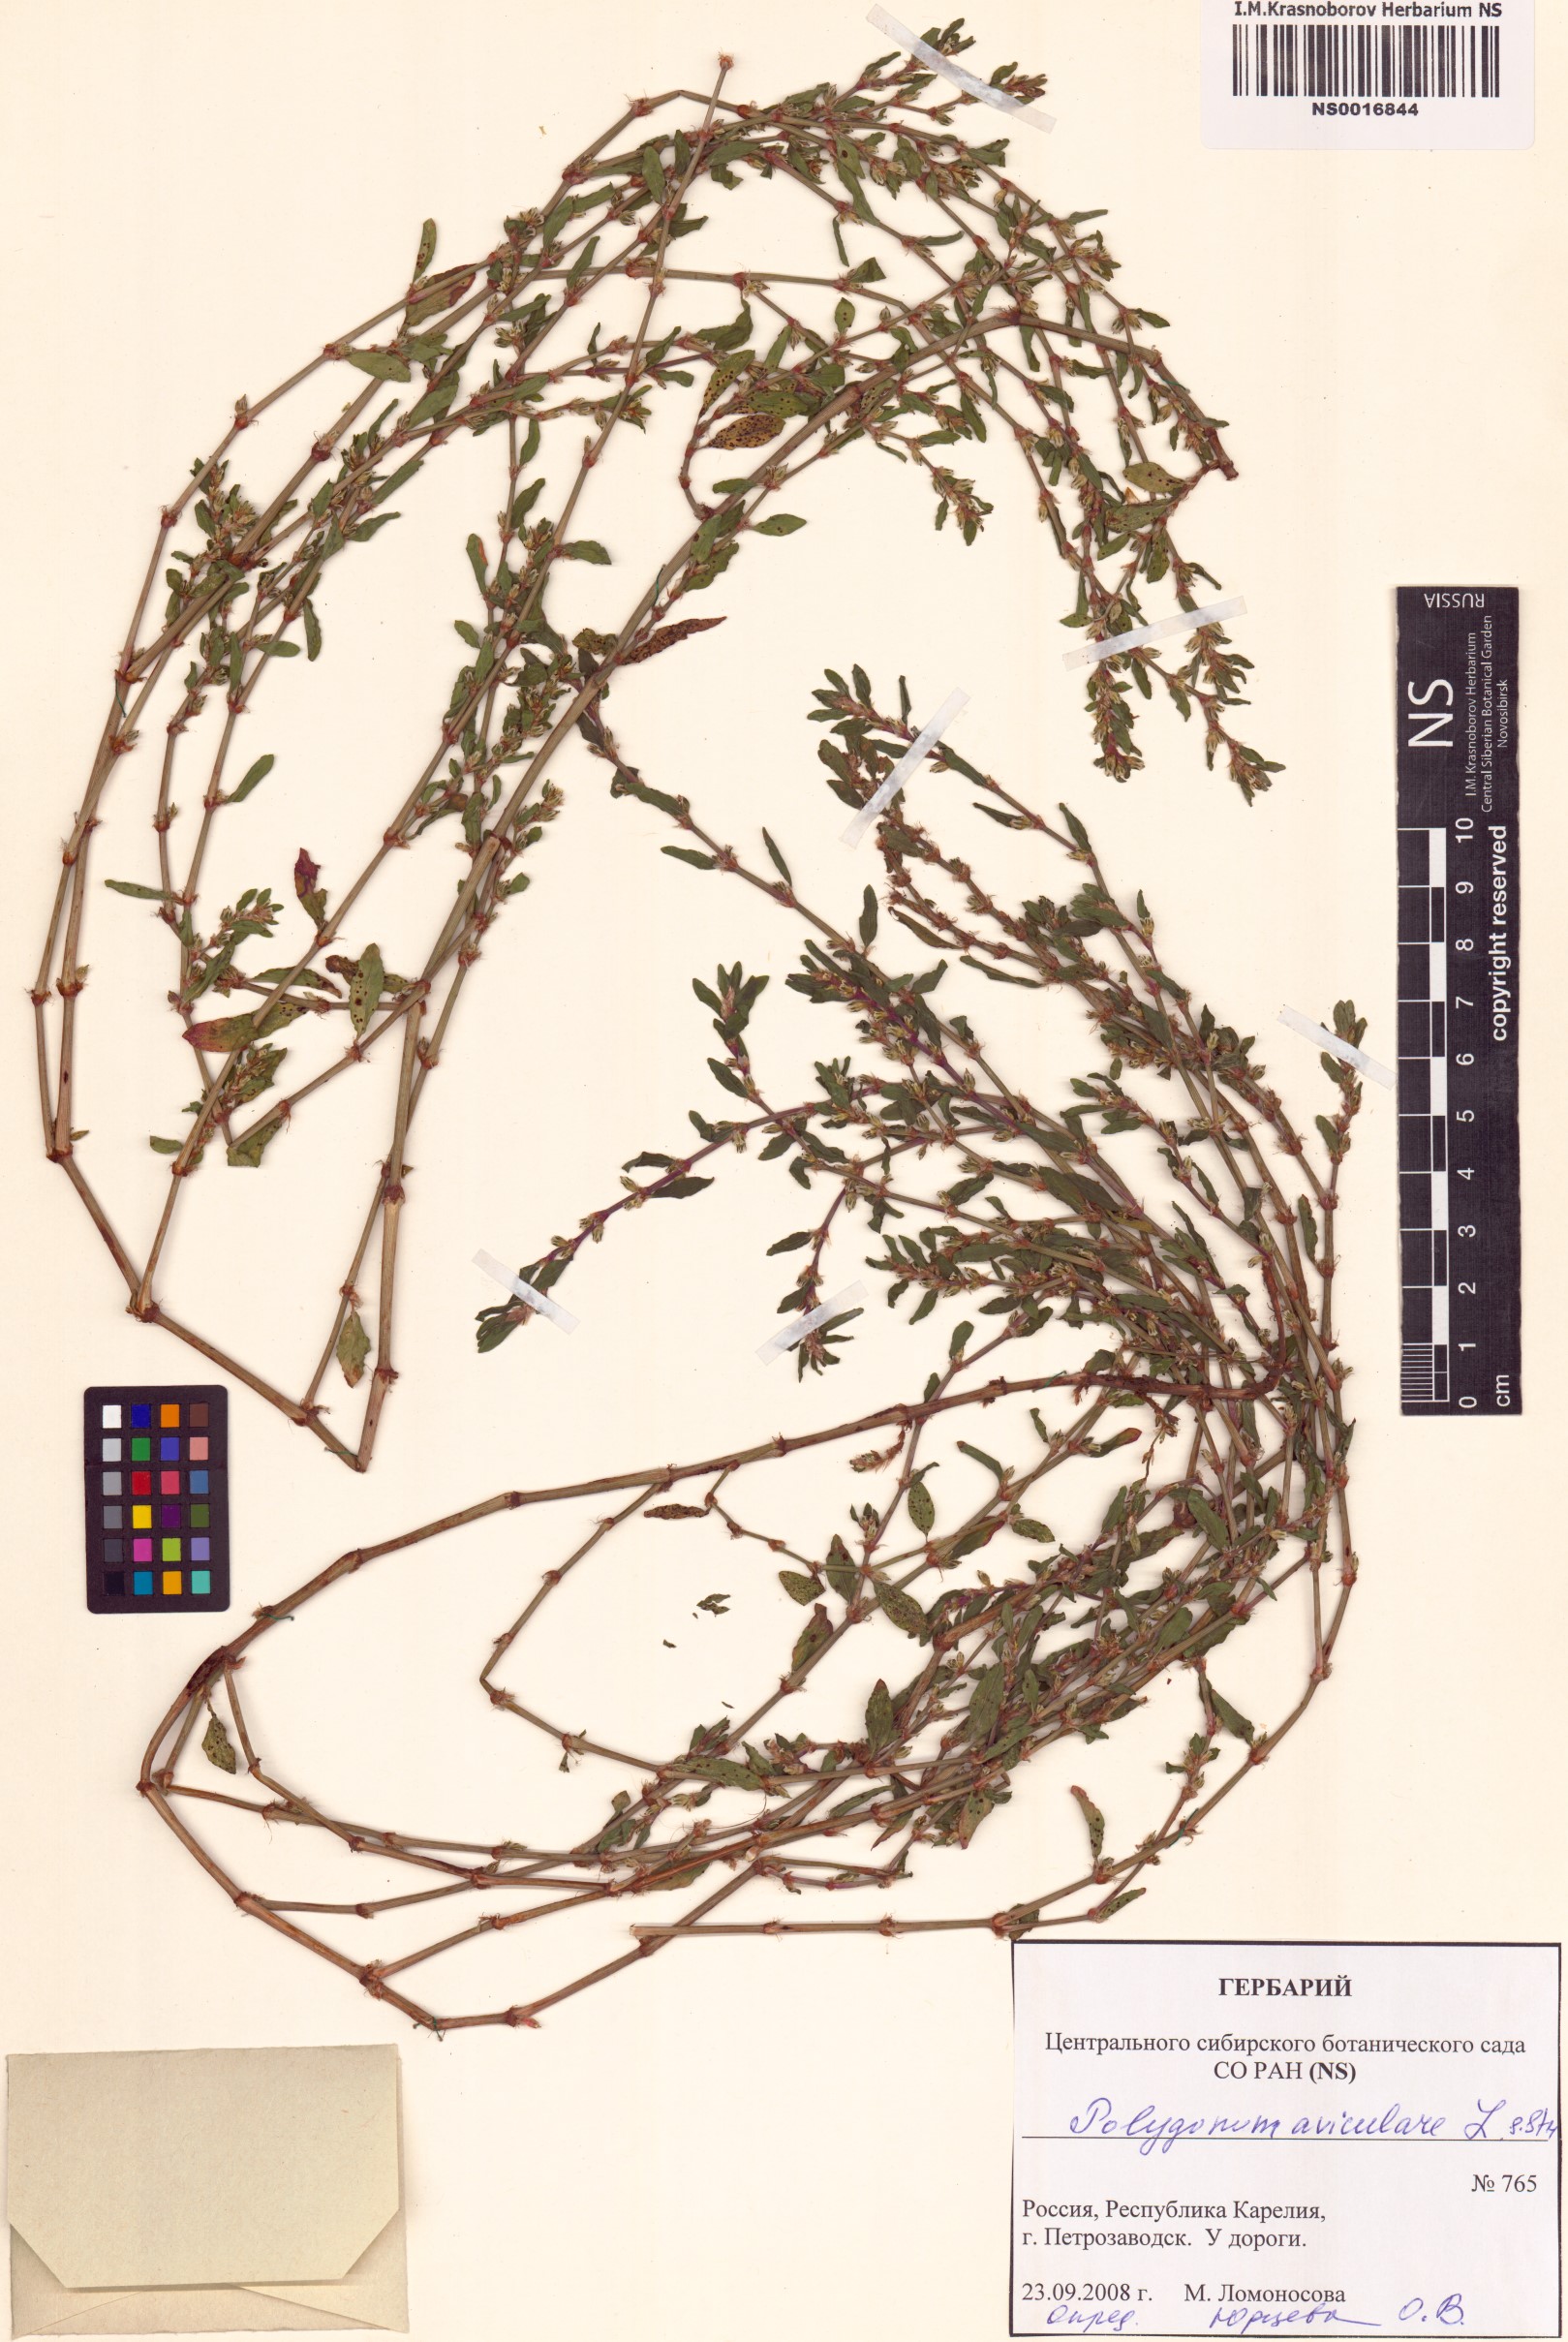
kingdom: Plantae
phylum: Tracheophyta
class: Magnoliopsida
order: Caryophyllales
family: Polygonaceae
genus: Polygonum
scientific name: Polygonum aviculare
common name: Prostrate knotweed
